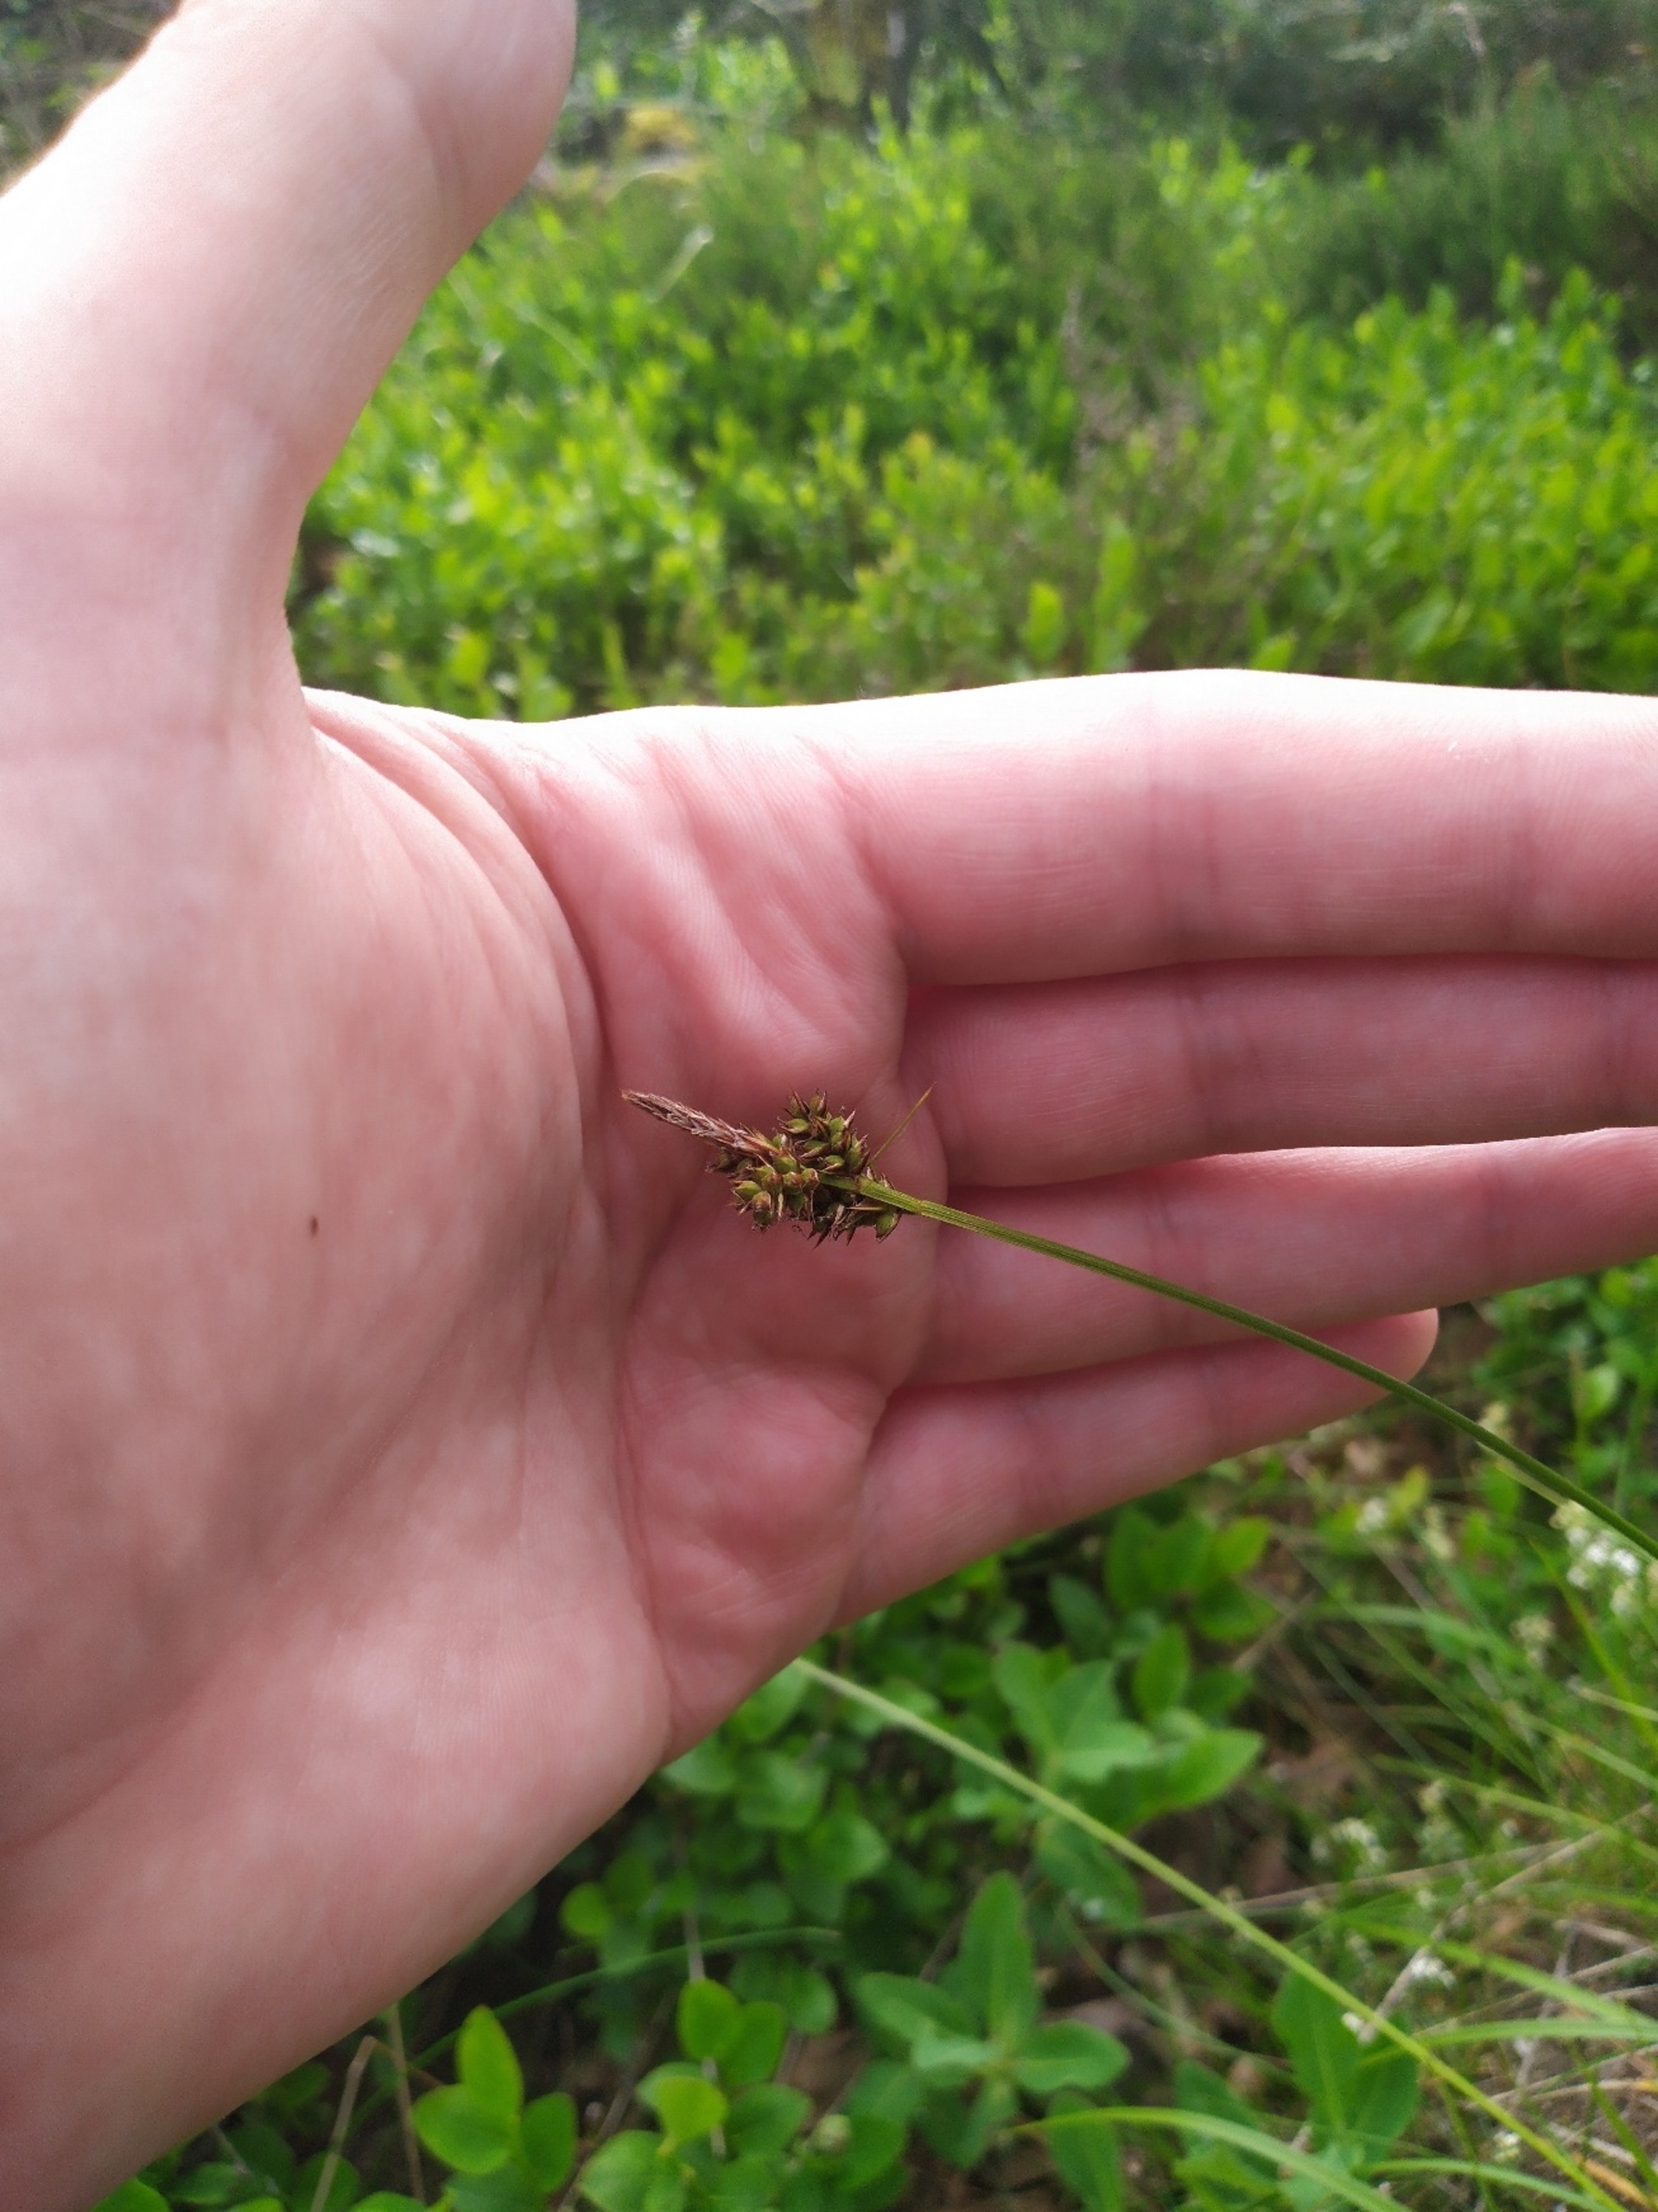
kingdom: Plantae
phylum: Tracheophyta
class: Liliopsida
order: Poales
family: Cyperaceae
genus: Carex
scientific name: Carex pilulifera
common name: Pille-star
